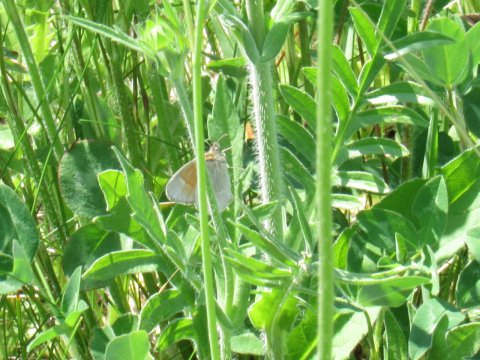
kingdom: Animalia
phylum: Arthropoda
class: Insecta
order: Lepidoptera
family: Nymphalidae
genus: Coenonympha
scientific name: Coenonympha tullia
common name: Large Heath
